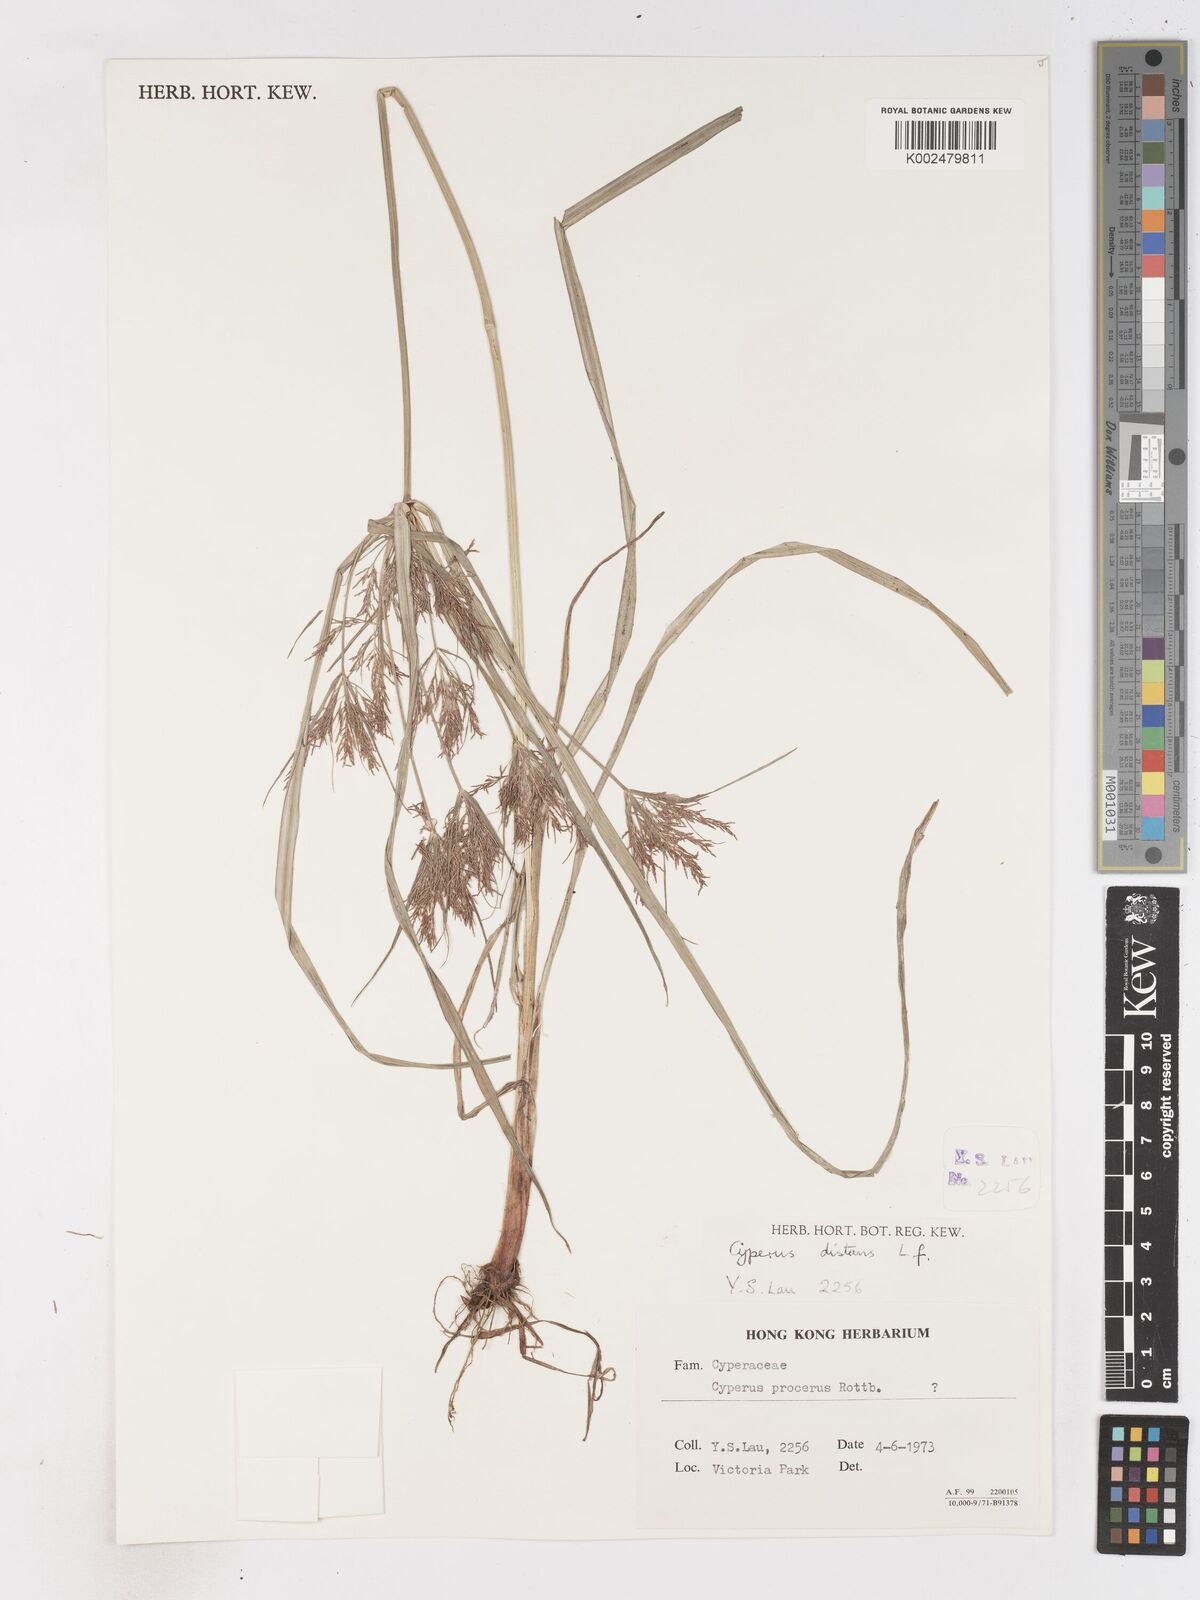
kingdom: Plantae
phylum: Tracheophyta
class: Liliopsida
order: Poales
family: Cyperaceae
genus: Cyperus
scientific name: Cyperus distans
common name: Slender cyperus
